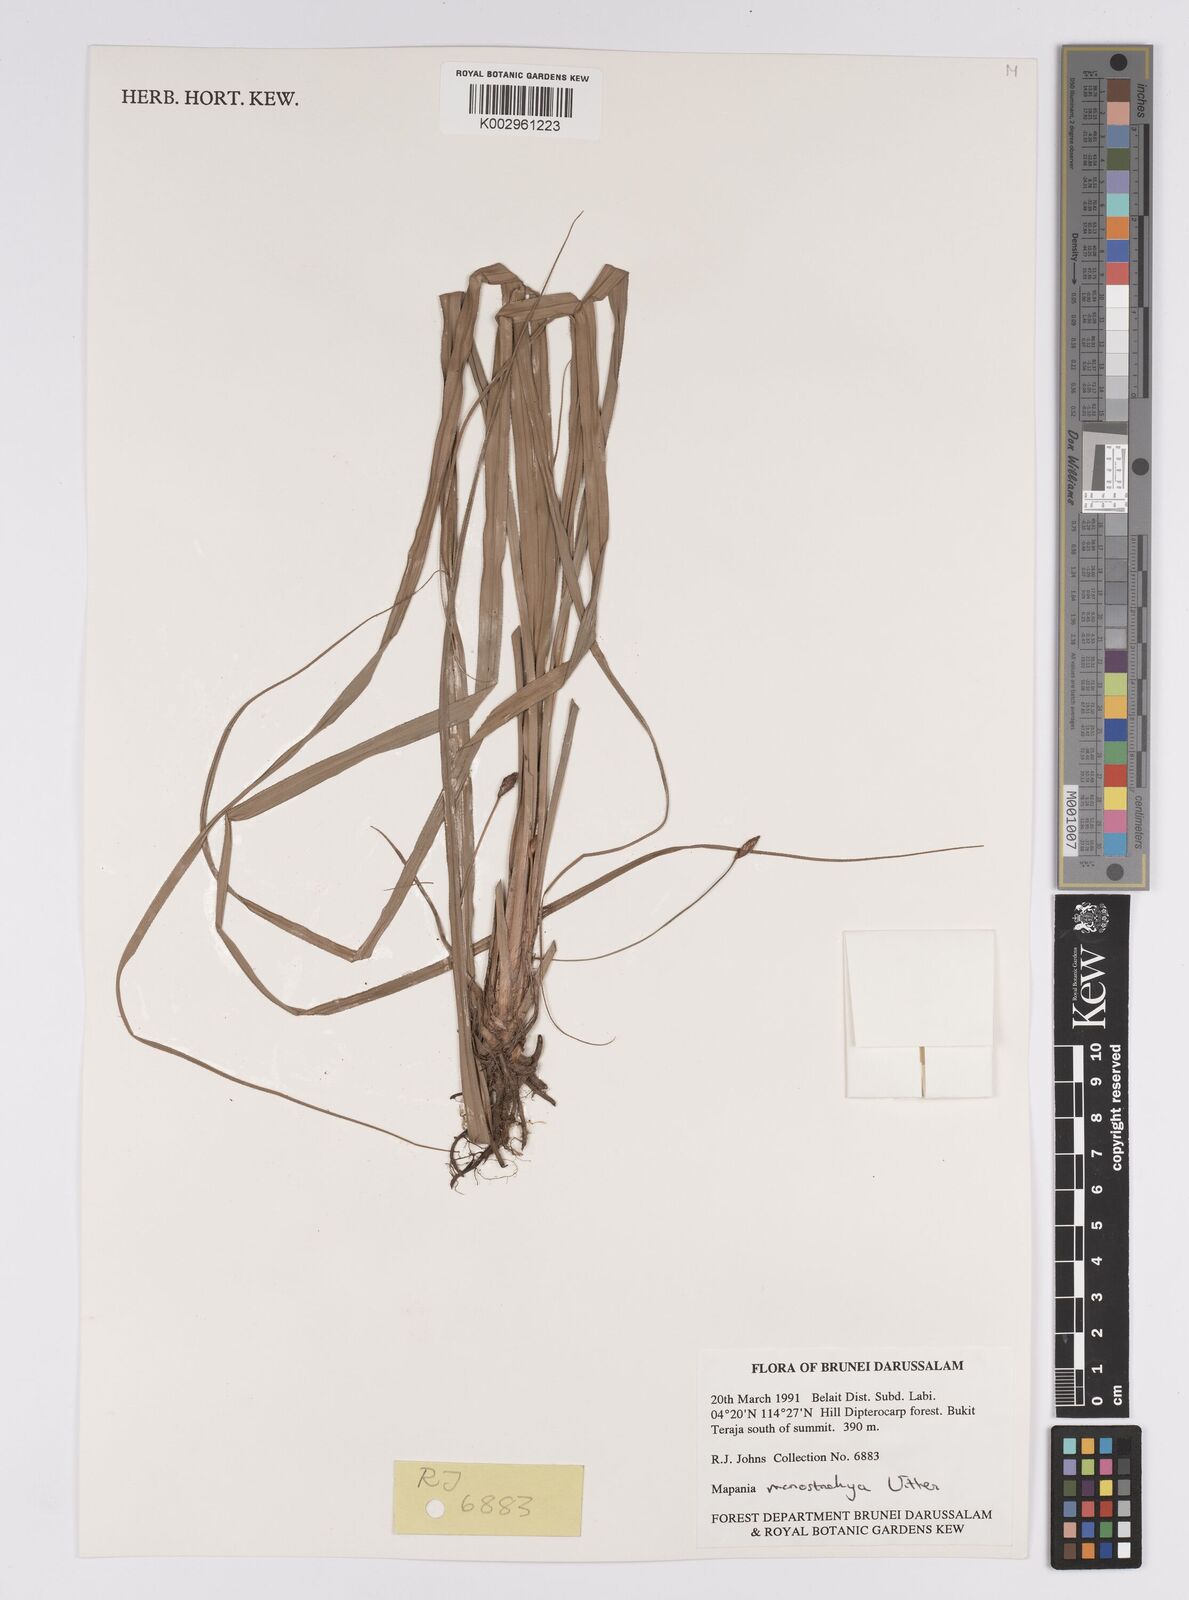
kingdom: Plantae
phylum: Tracheophyta
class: Liliopsida
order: Poales
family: Cyperaceae
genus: Mapania
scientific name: Mapania monostachya
